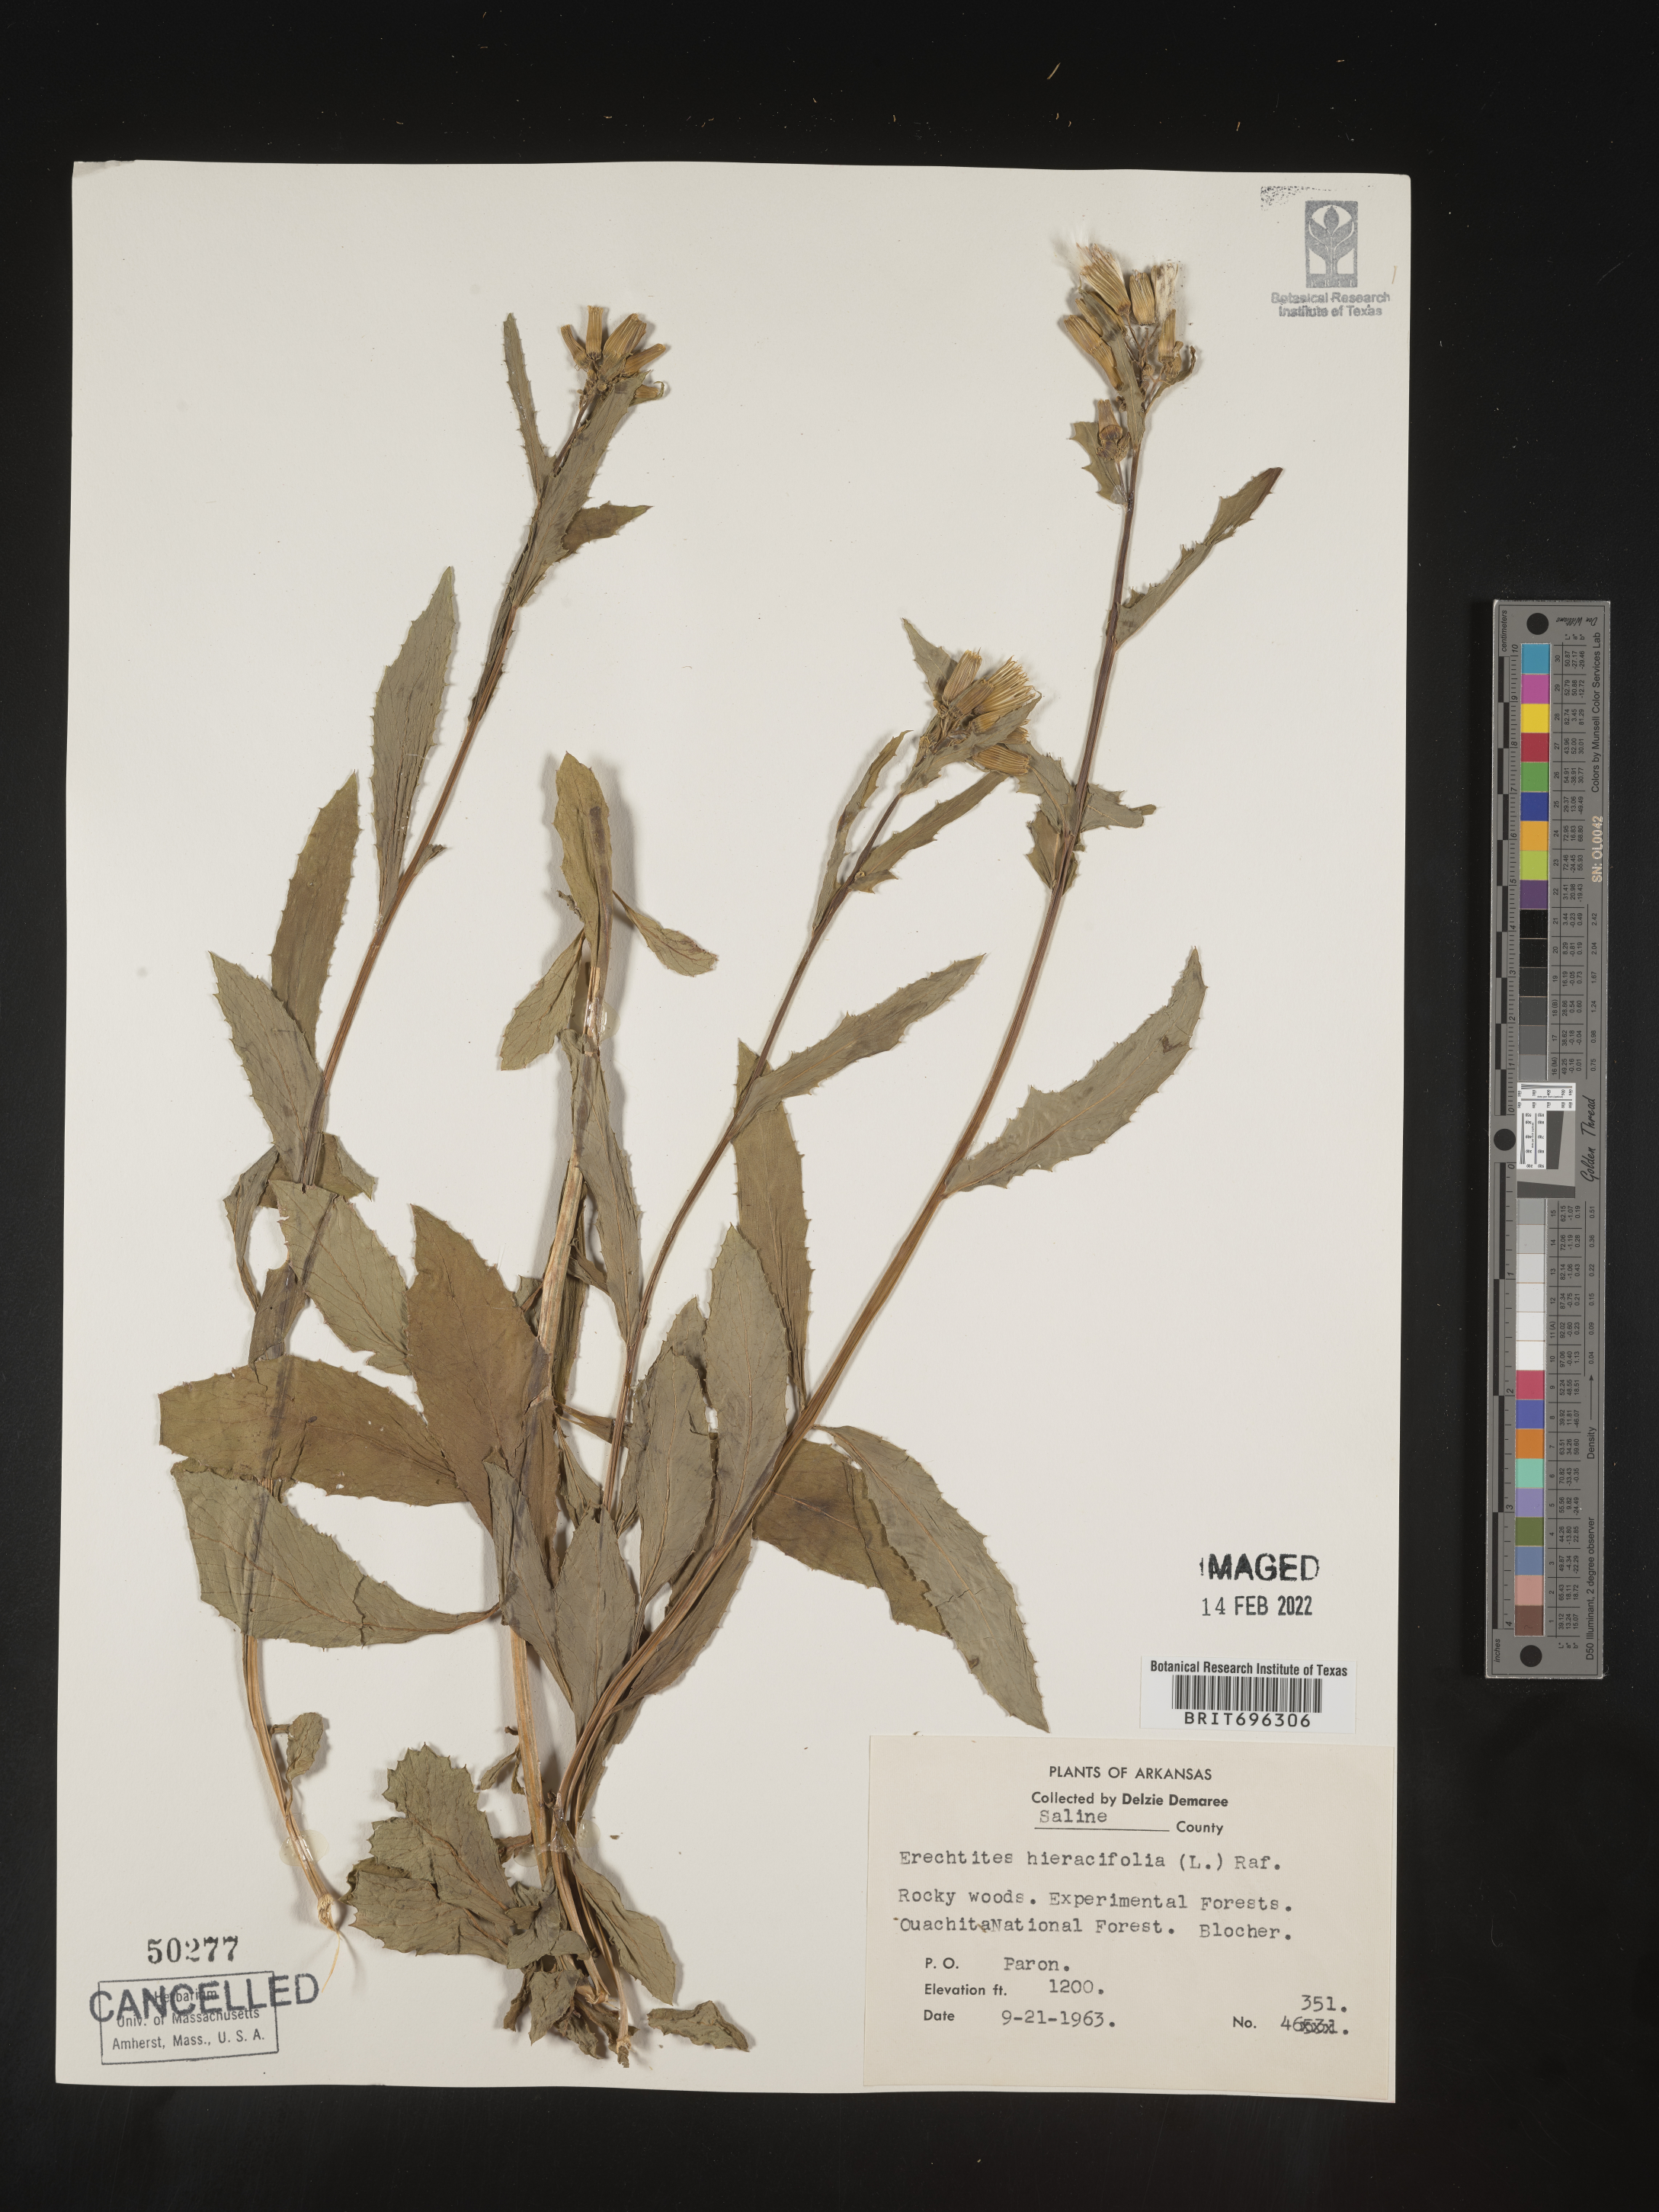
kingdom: Plantae
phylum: Tracheophyta
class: Magnoliopsida
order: Asterales
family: Asteraceae
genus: Erechtites
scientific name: Erechtites hieraciifolius
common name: American burnweed
